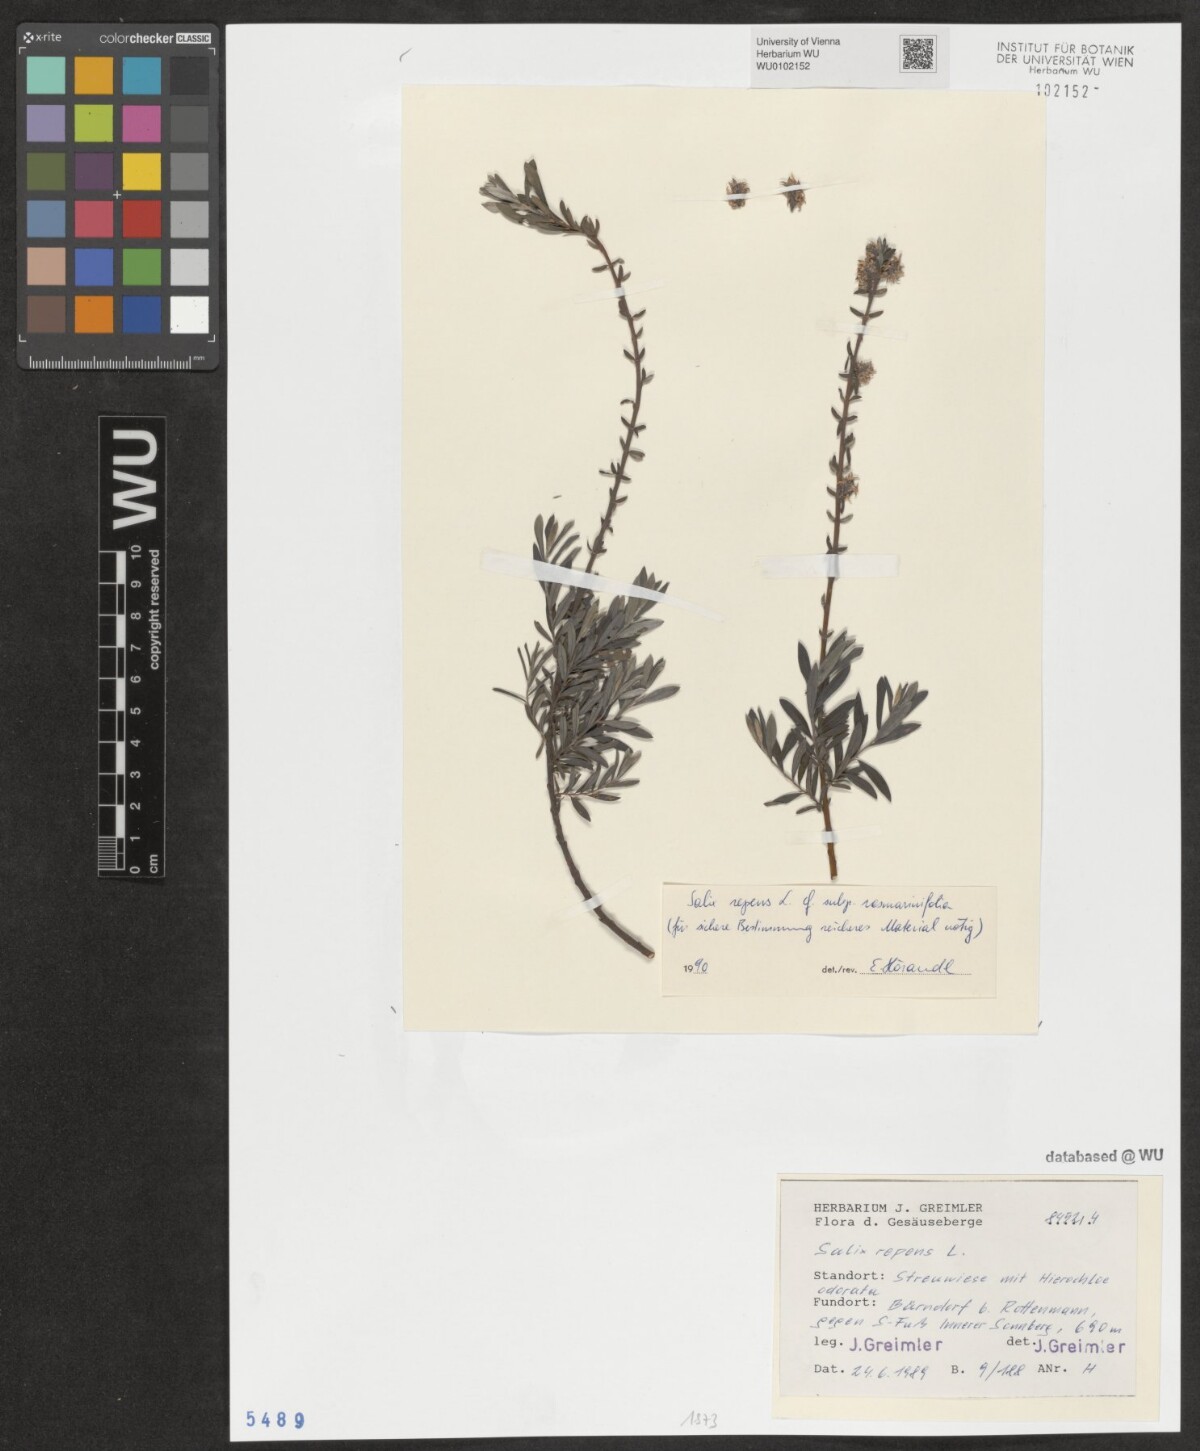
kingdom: Plantae
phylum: Tracheophyta
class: Magnoliopsida
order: Malpighiales
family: Salicaceae
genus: Salix
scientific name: Salix repens
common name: Creeping willow
